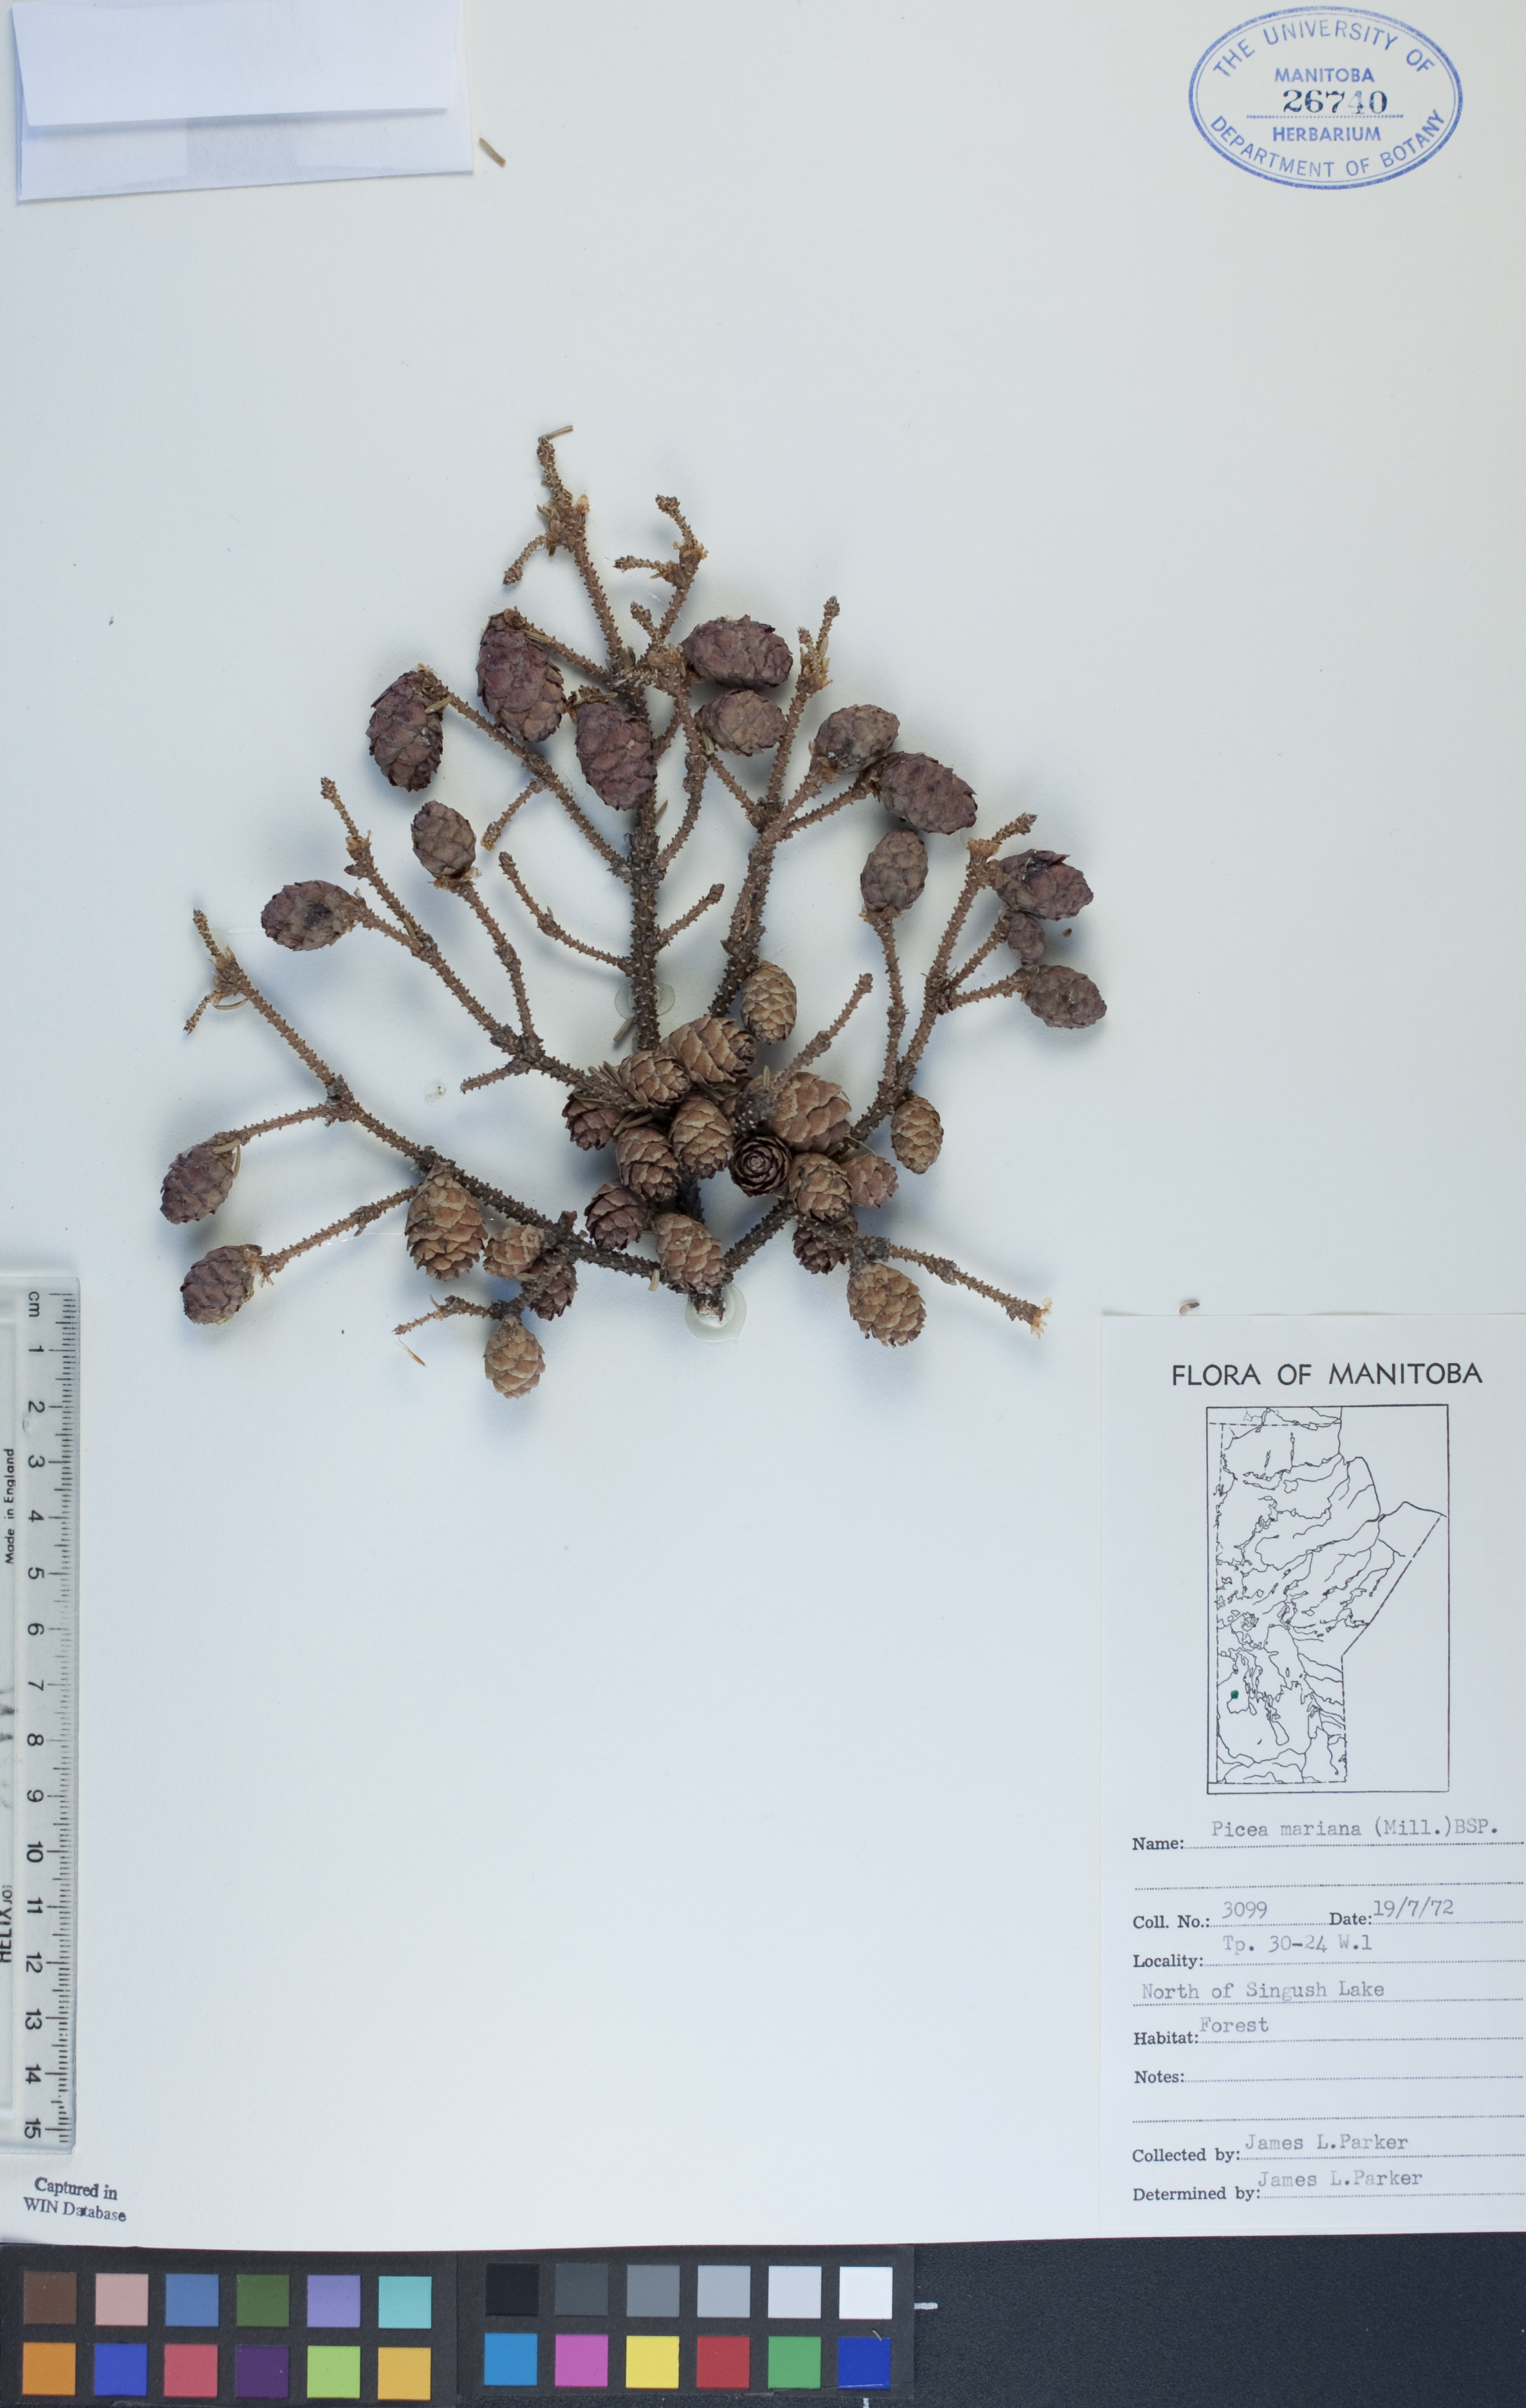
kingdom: Plantae
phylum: Tracheophyta
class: Pinopsida
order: Pinales
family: Pinaceae
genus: Picea
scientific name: Picea mariana
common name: Black spruce
